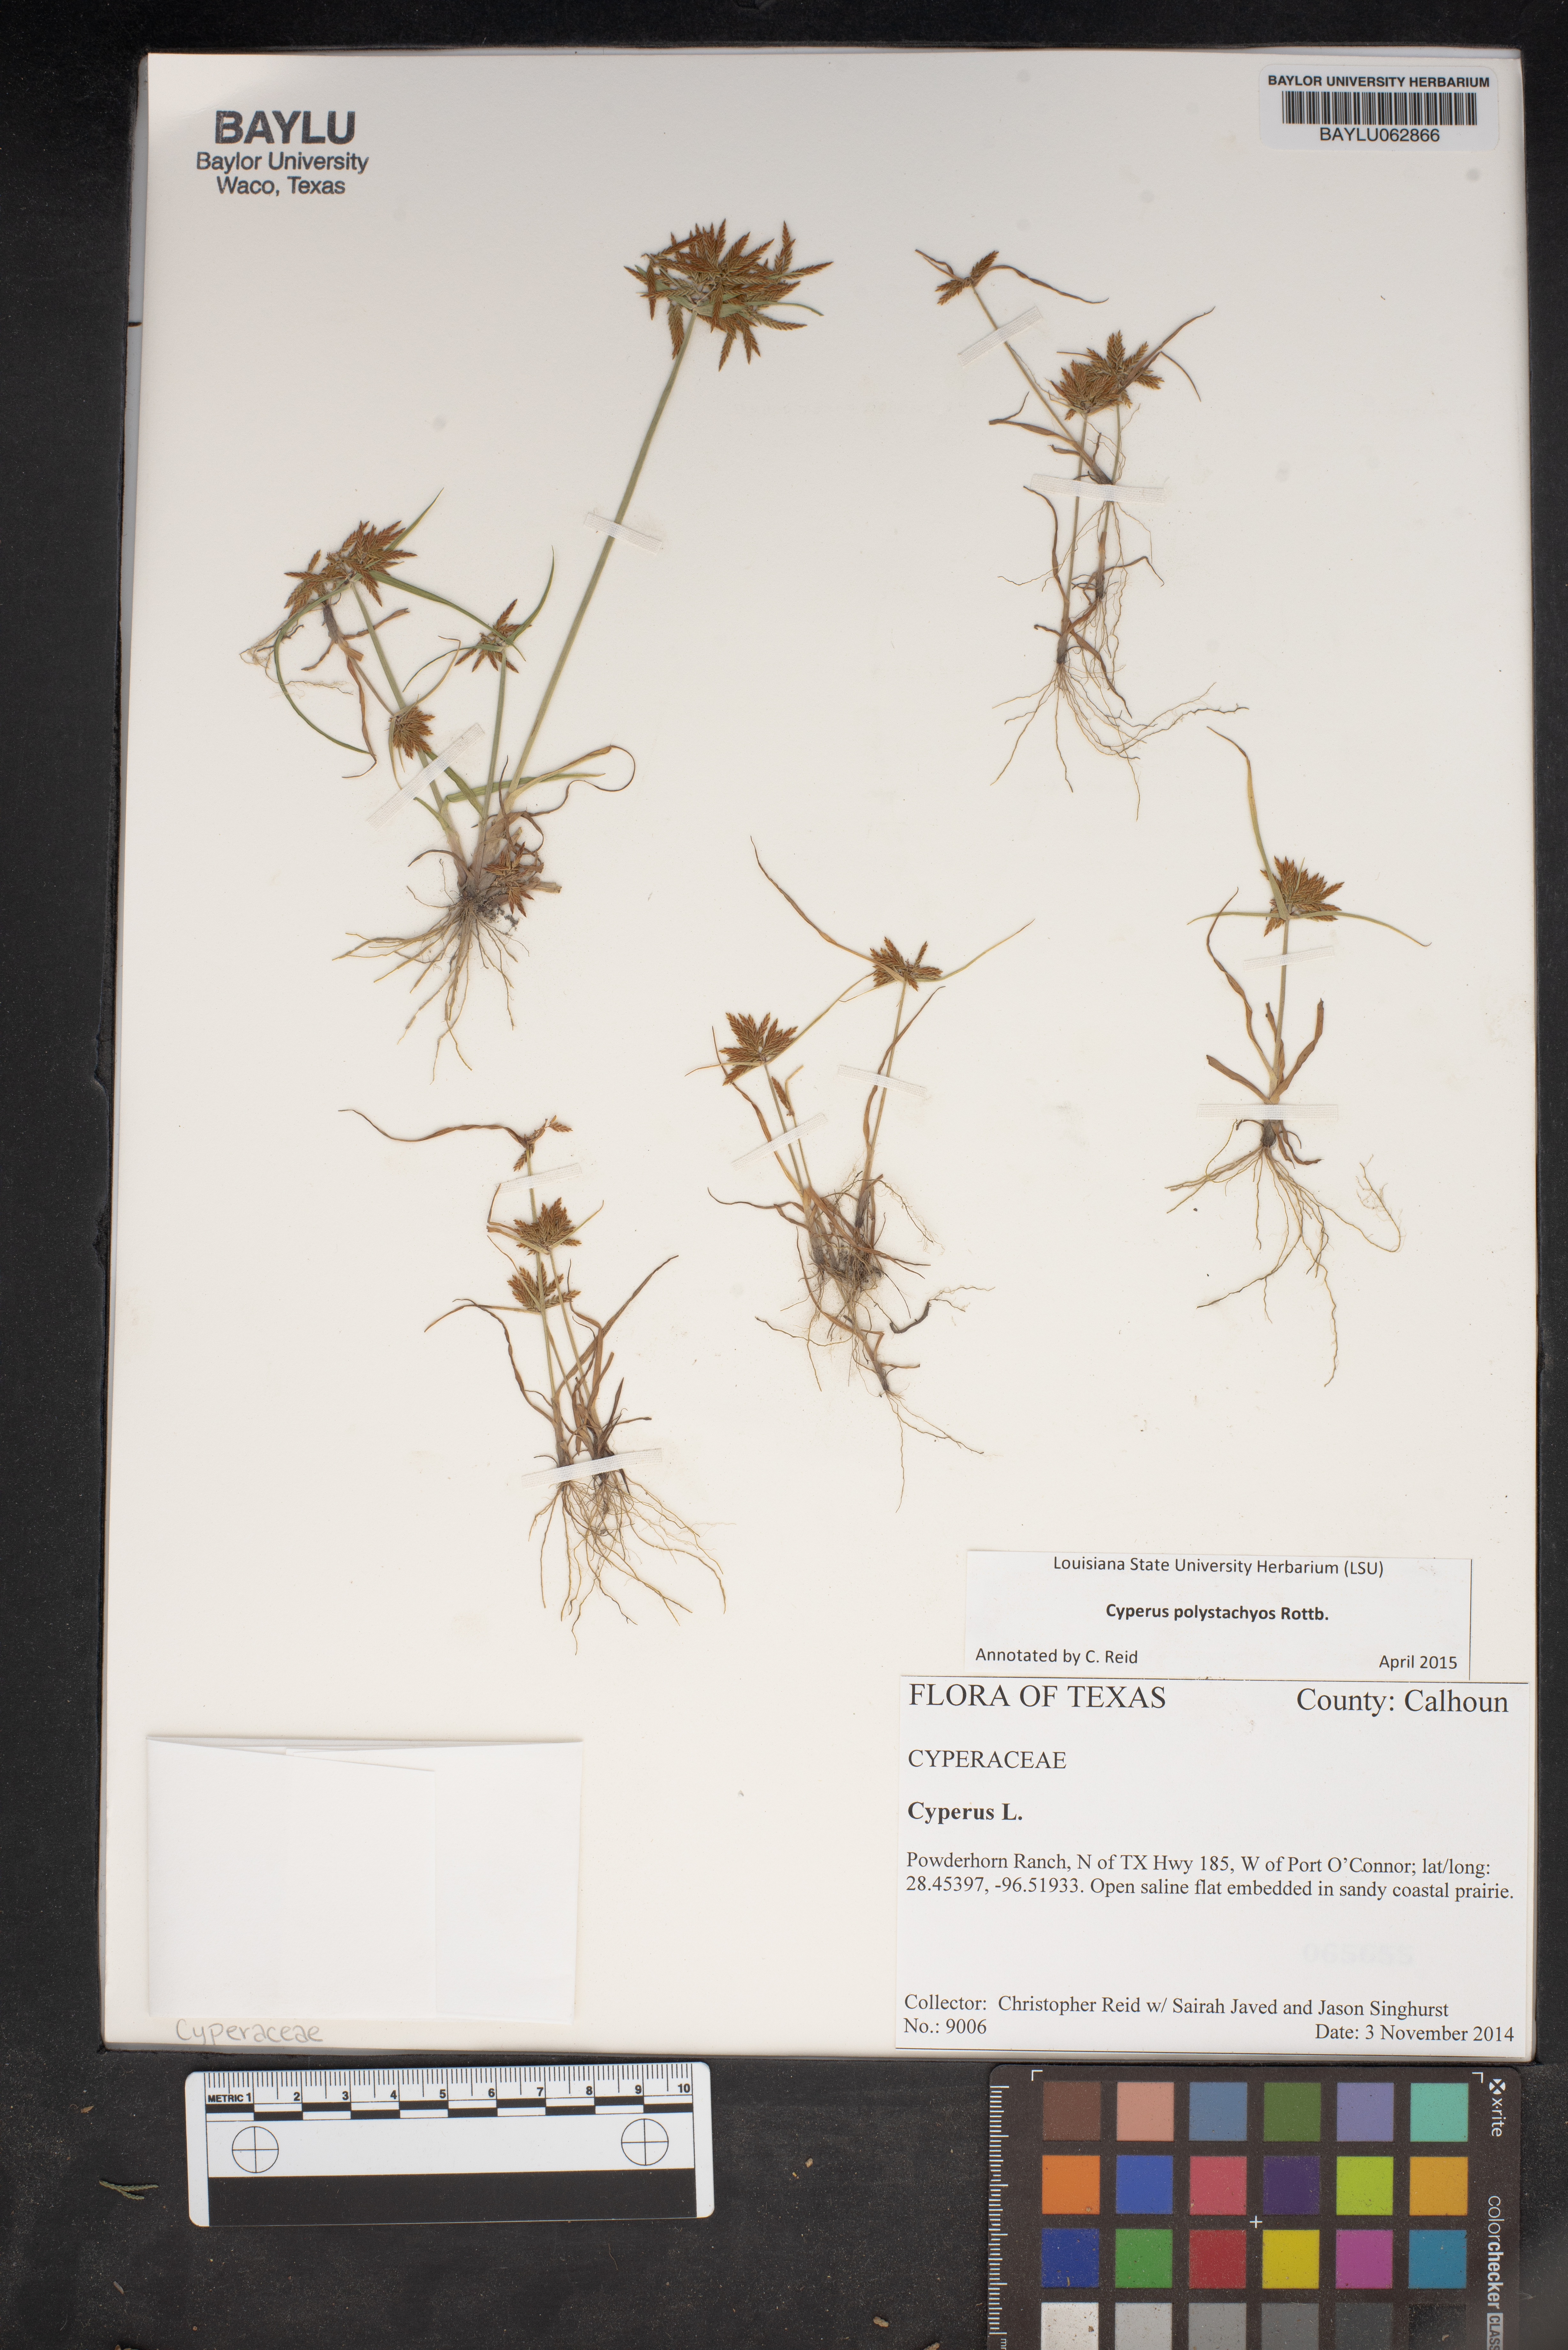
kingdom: Plantae
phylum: Tracheophyta
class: Liliopsida
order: Poales
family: Cyperaceae
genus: Cyperus
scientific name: Cyperus polystachyos
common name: Bunchy flat sedge
